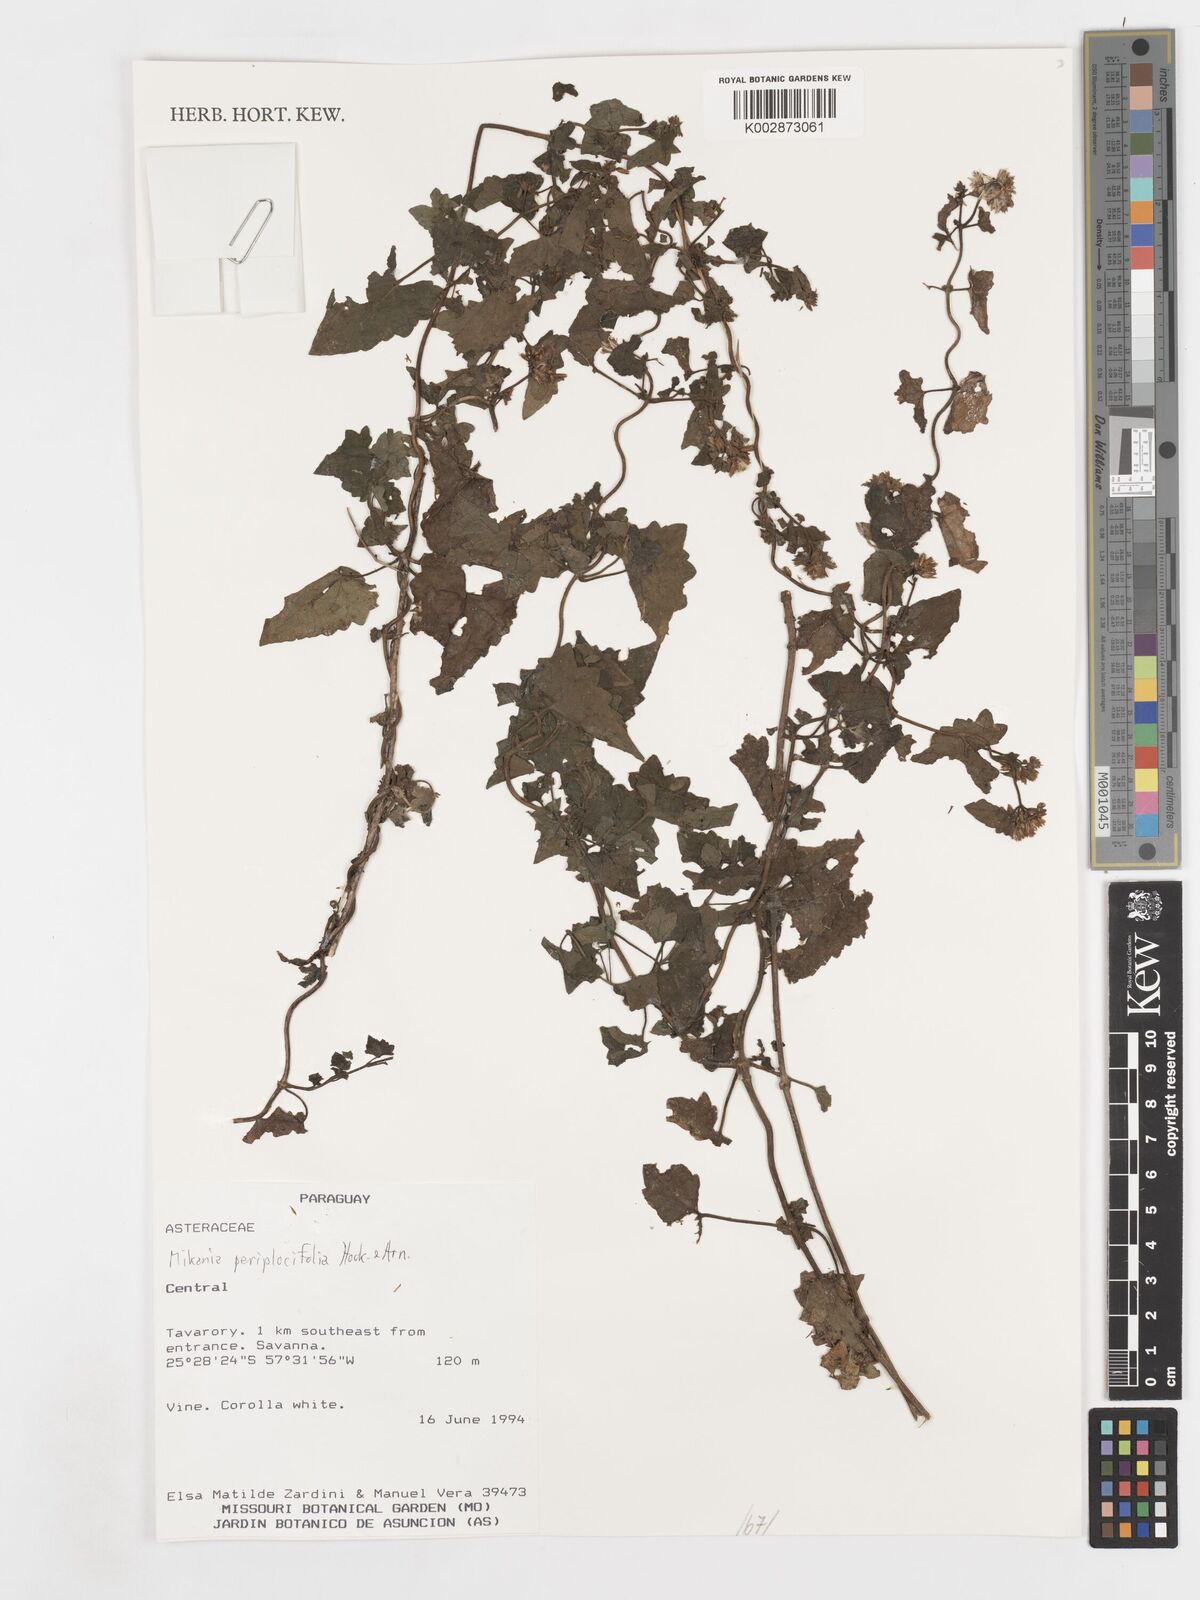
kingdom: Plantae
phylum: Tracheophyta
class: Magnoliopsida
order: Asterales
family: Asteraceae
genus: Mikania
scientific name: Mikania periplocifolia
